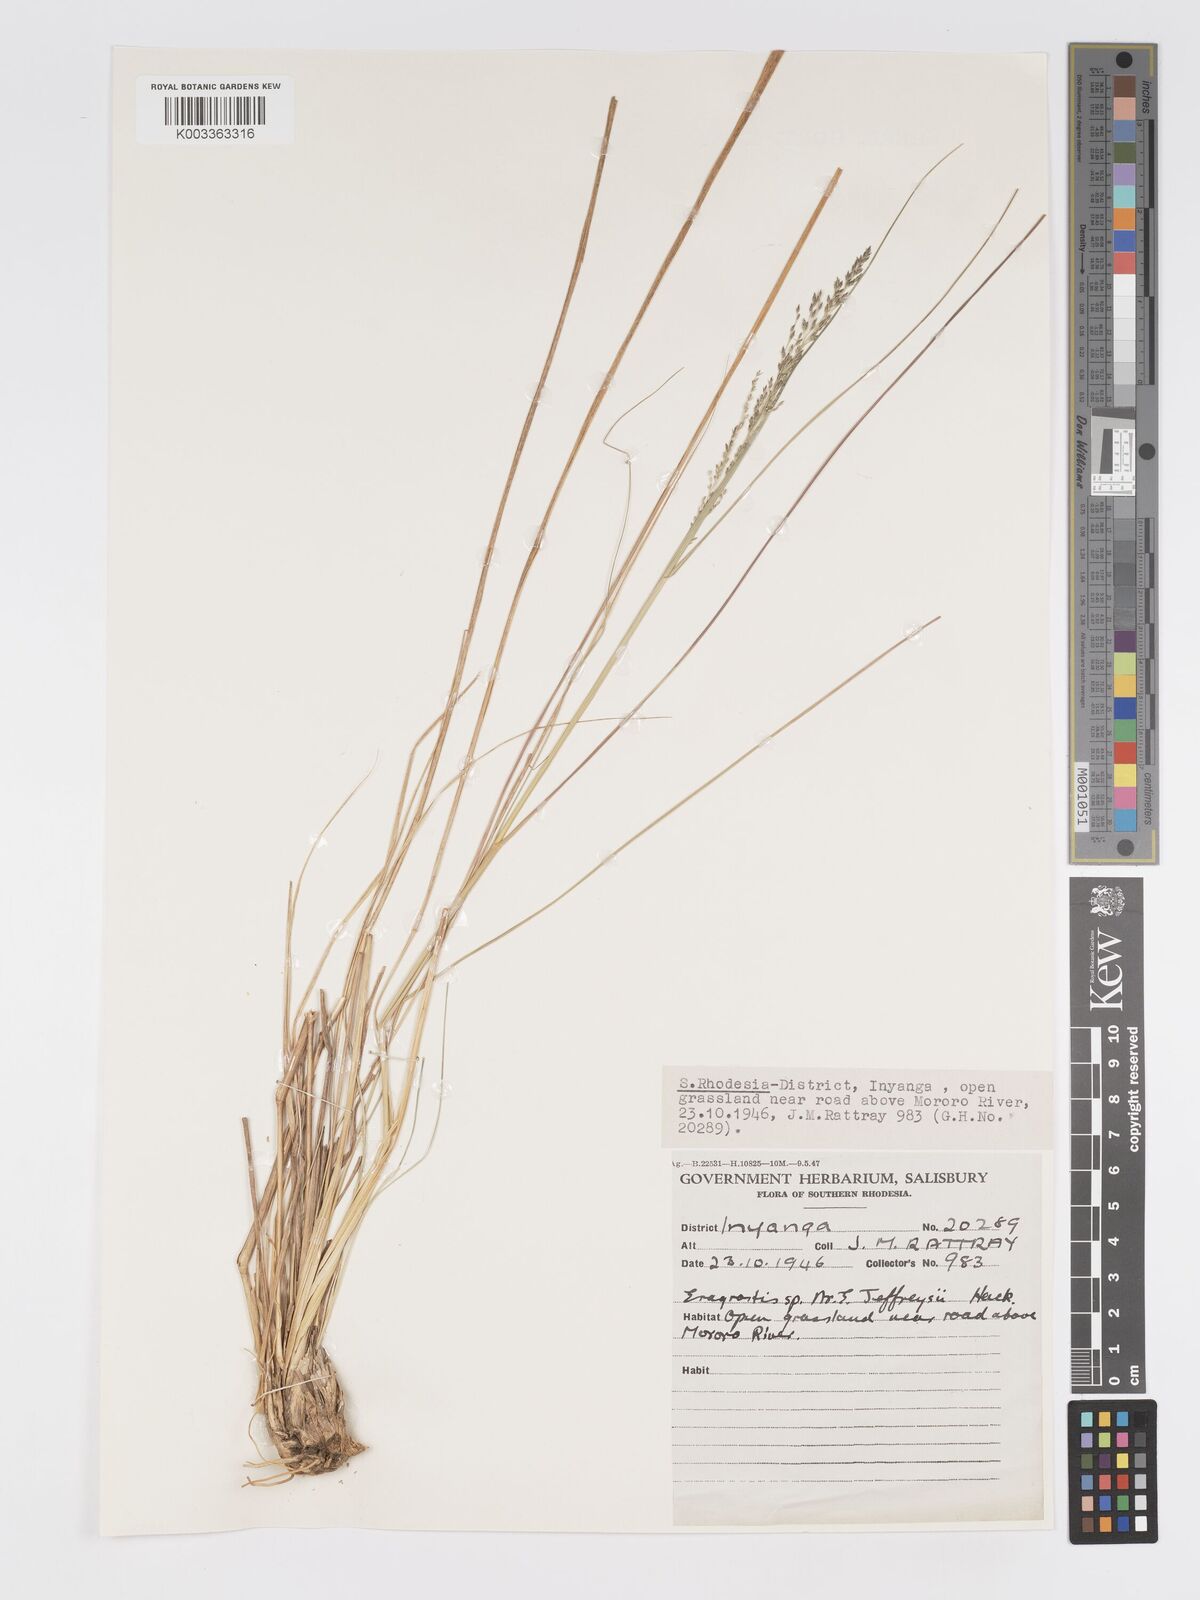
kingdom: Plantae
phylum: Tracheophyta
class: Liliopsida
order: Poales
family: Poaceae
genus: Eragrostis
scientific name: Eragrostis curvula
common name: African love-grass
